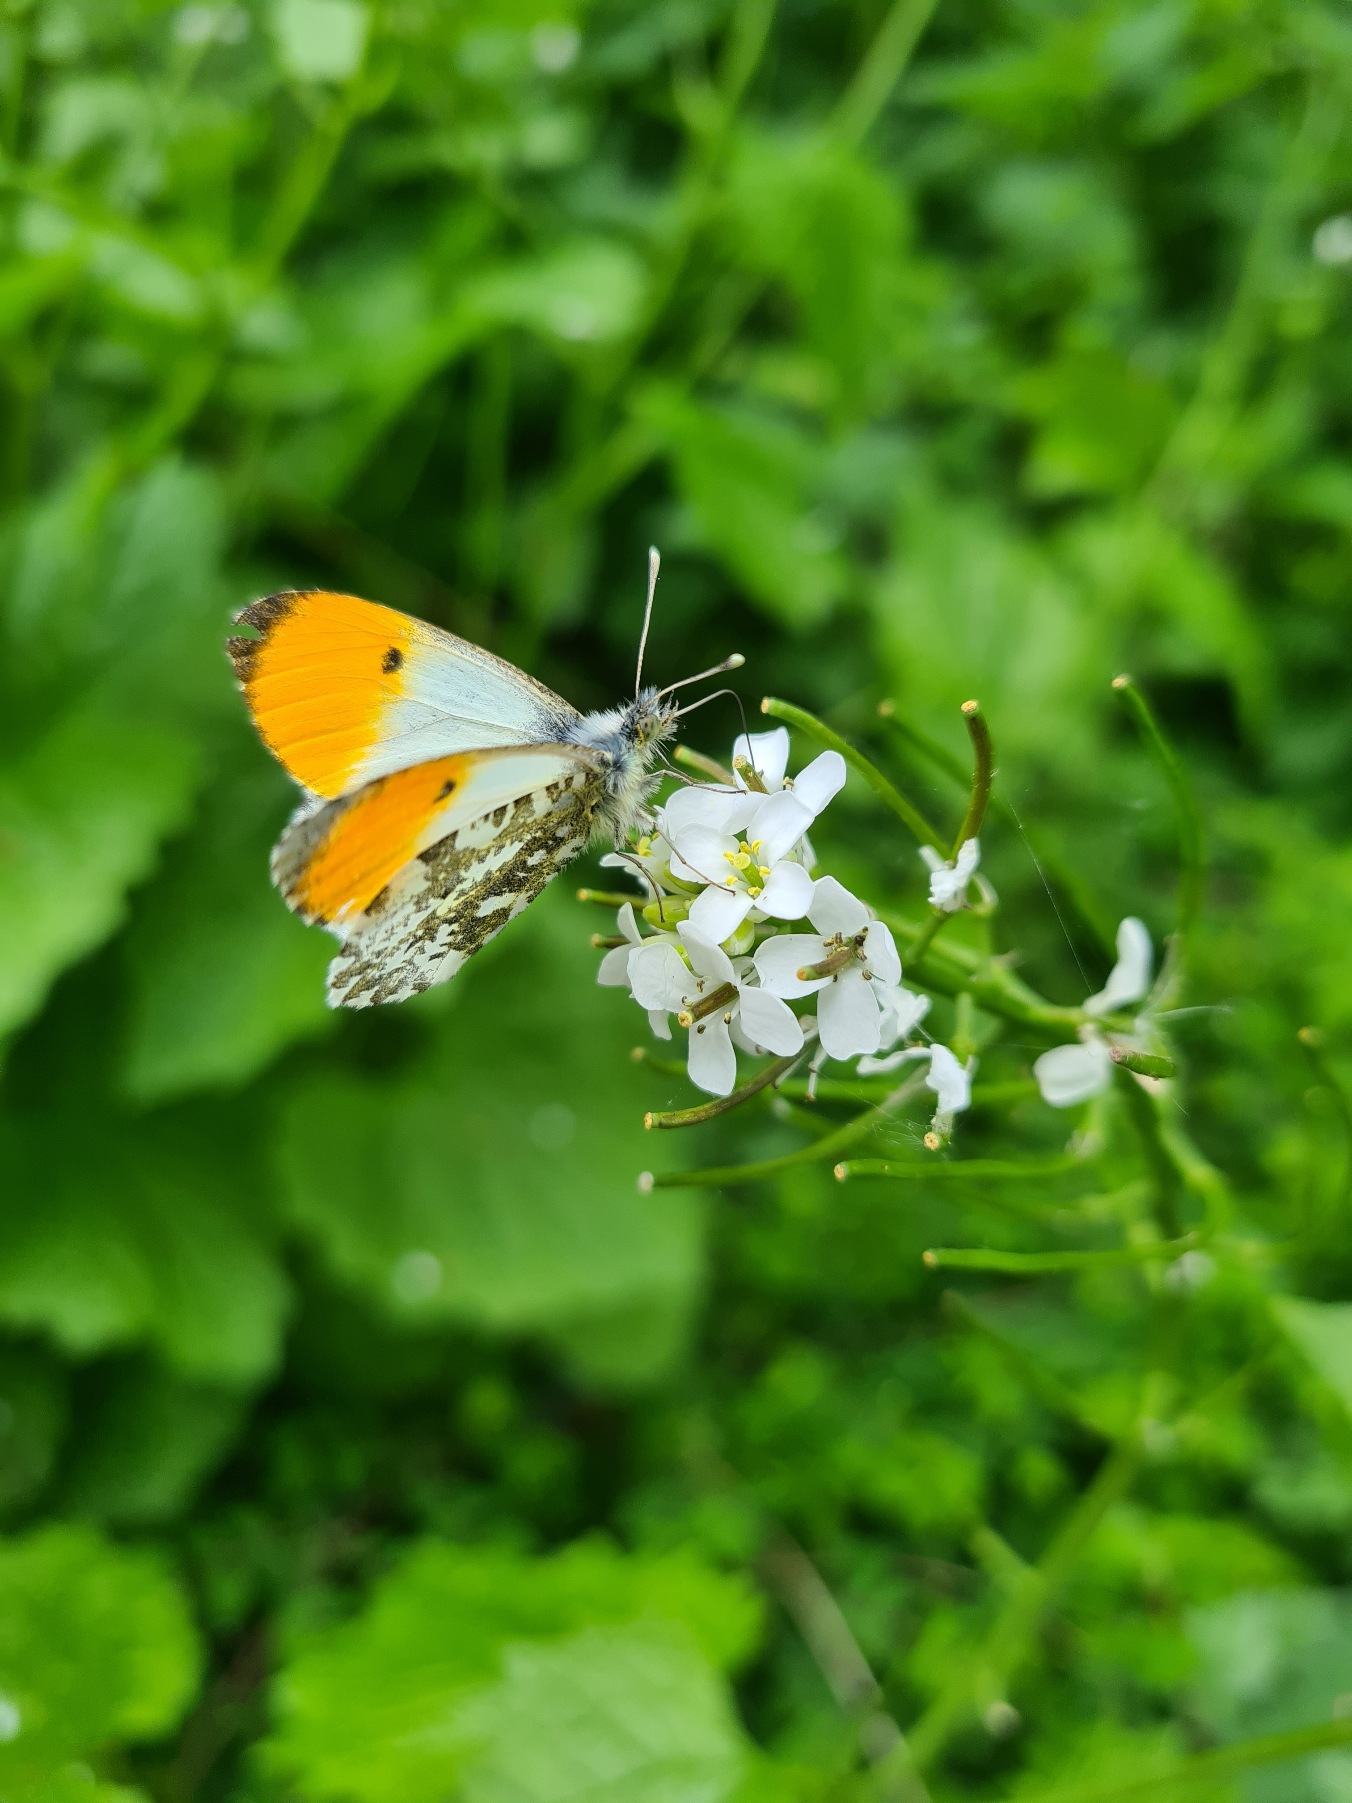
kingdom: Animalia
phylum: Arthropoda
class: Insecta
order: Lepidoptera
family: Pieridae
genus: Anthocharis
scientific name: Anthocharis cardamines
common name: Aurora
